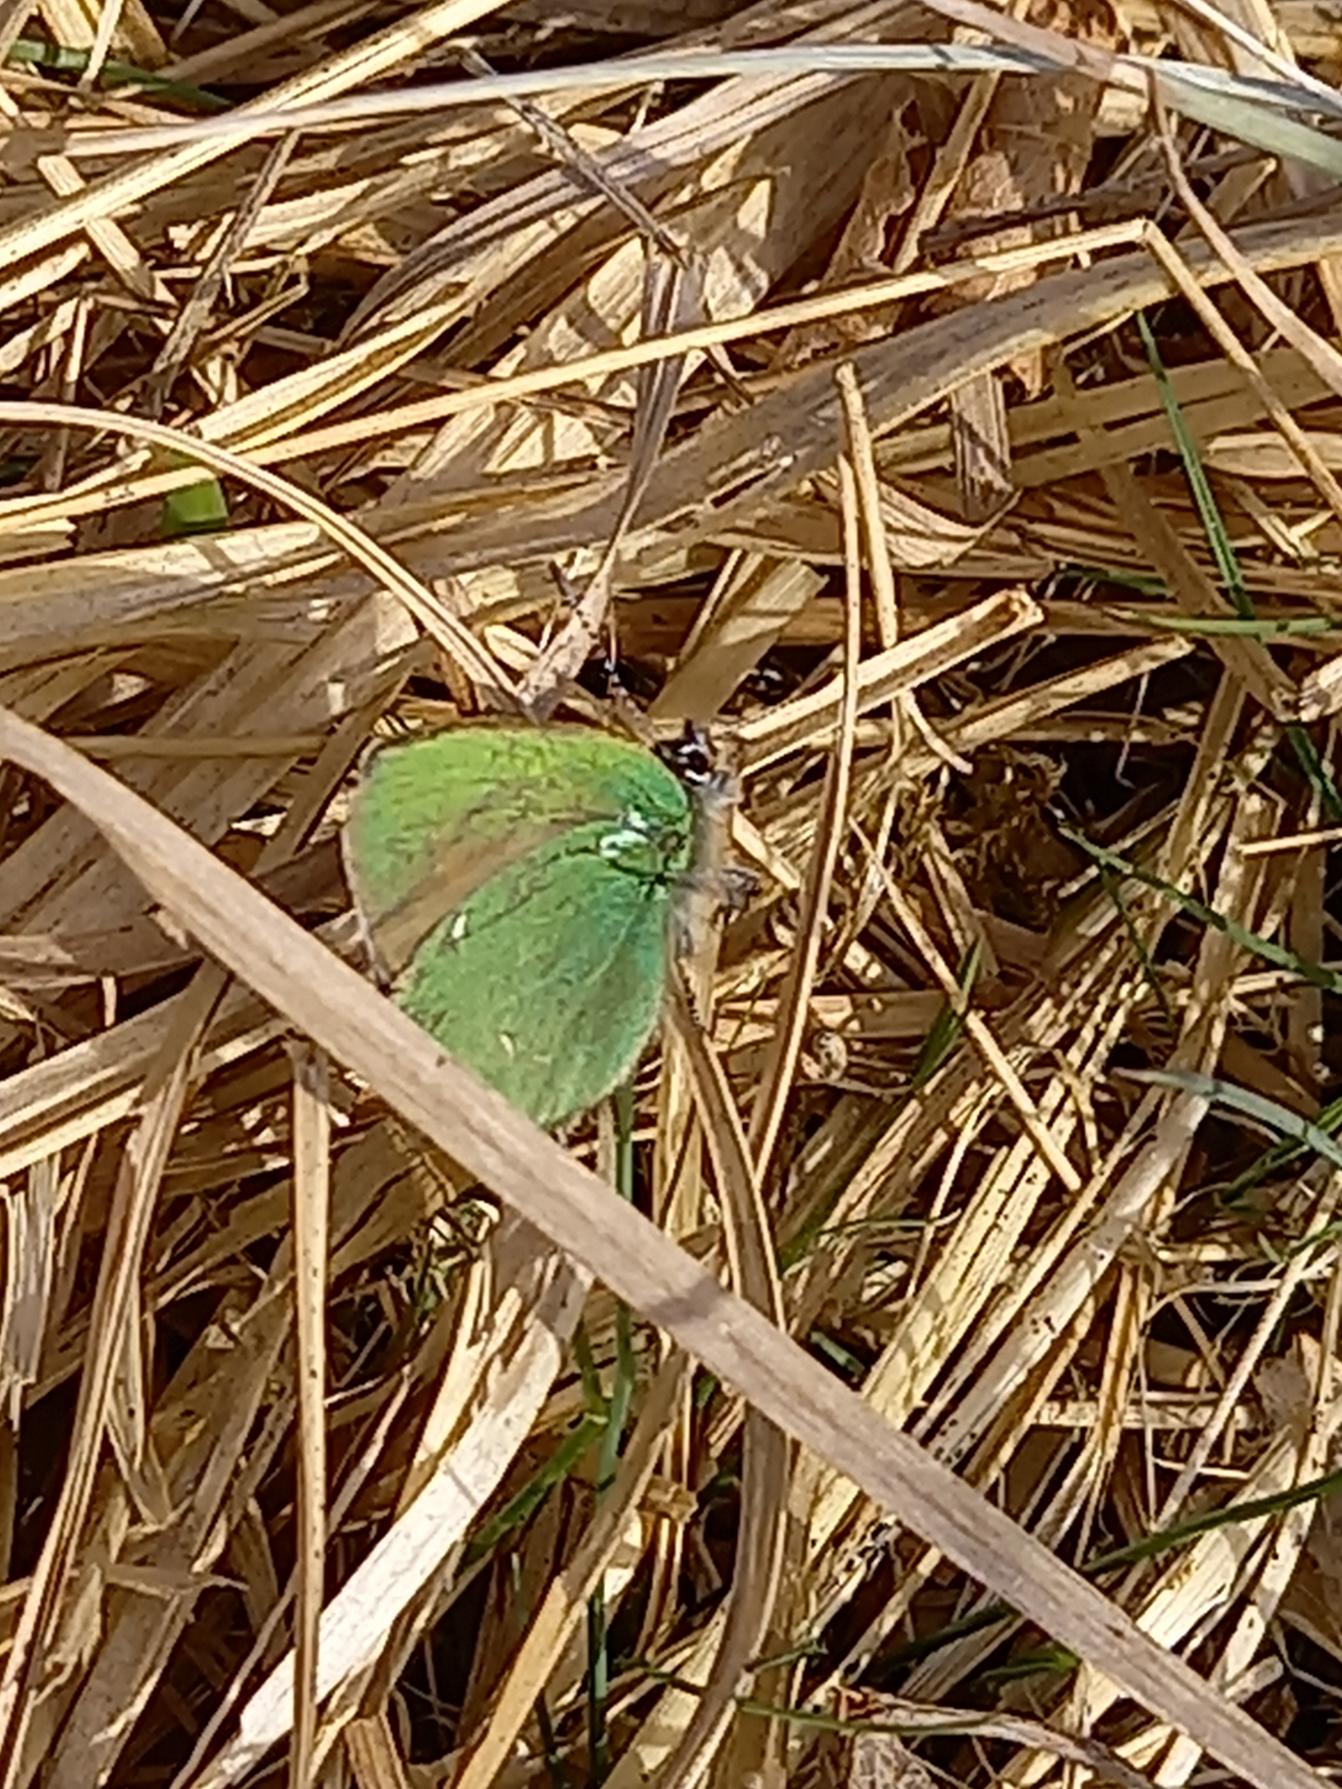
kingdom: Animalia
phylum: Arthropoda
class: Insecta
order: Lepidoptera
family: Lycaenidae
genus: Callophrys
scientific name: Callophrys rubi
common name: Grøn busksommerfugl
